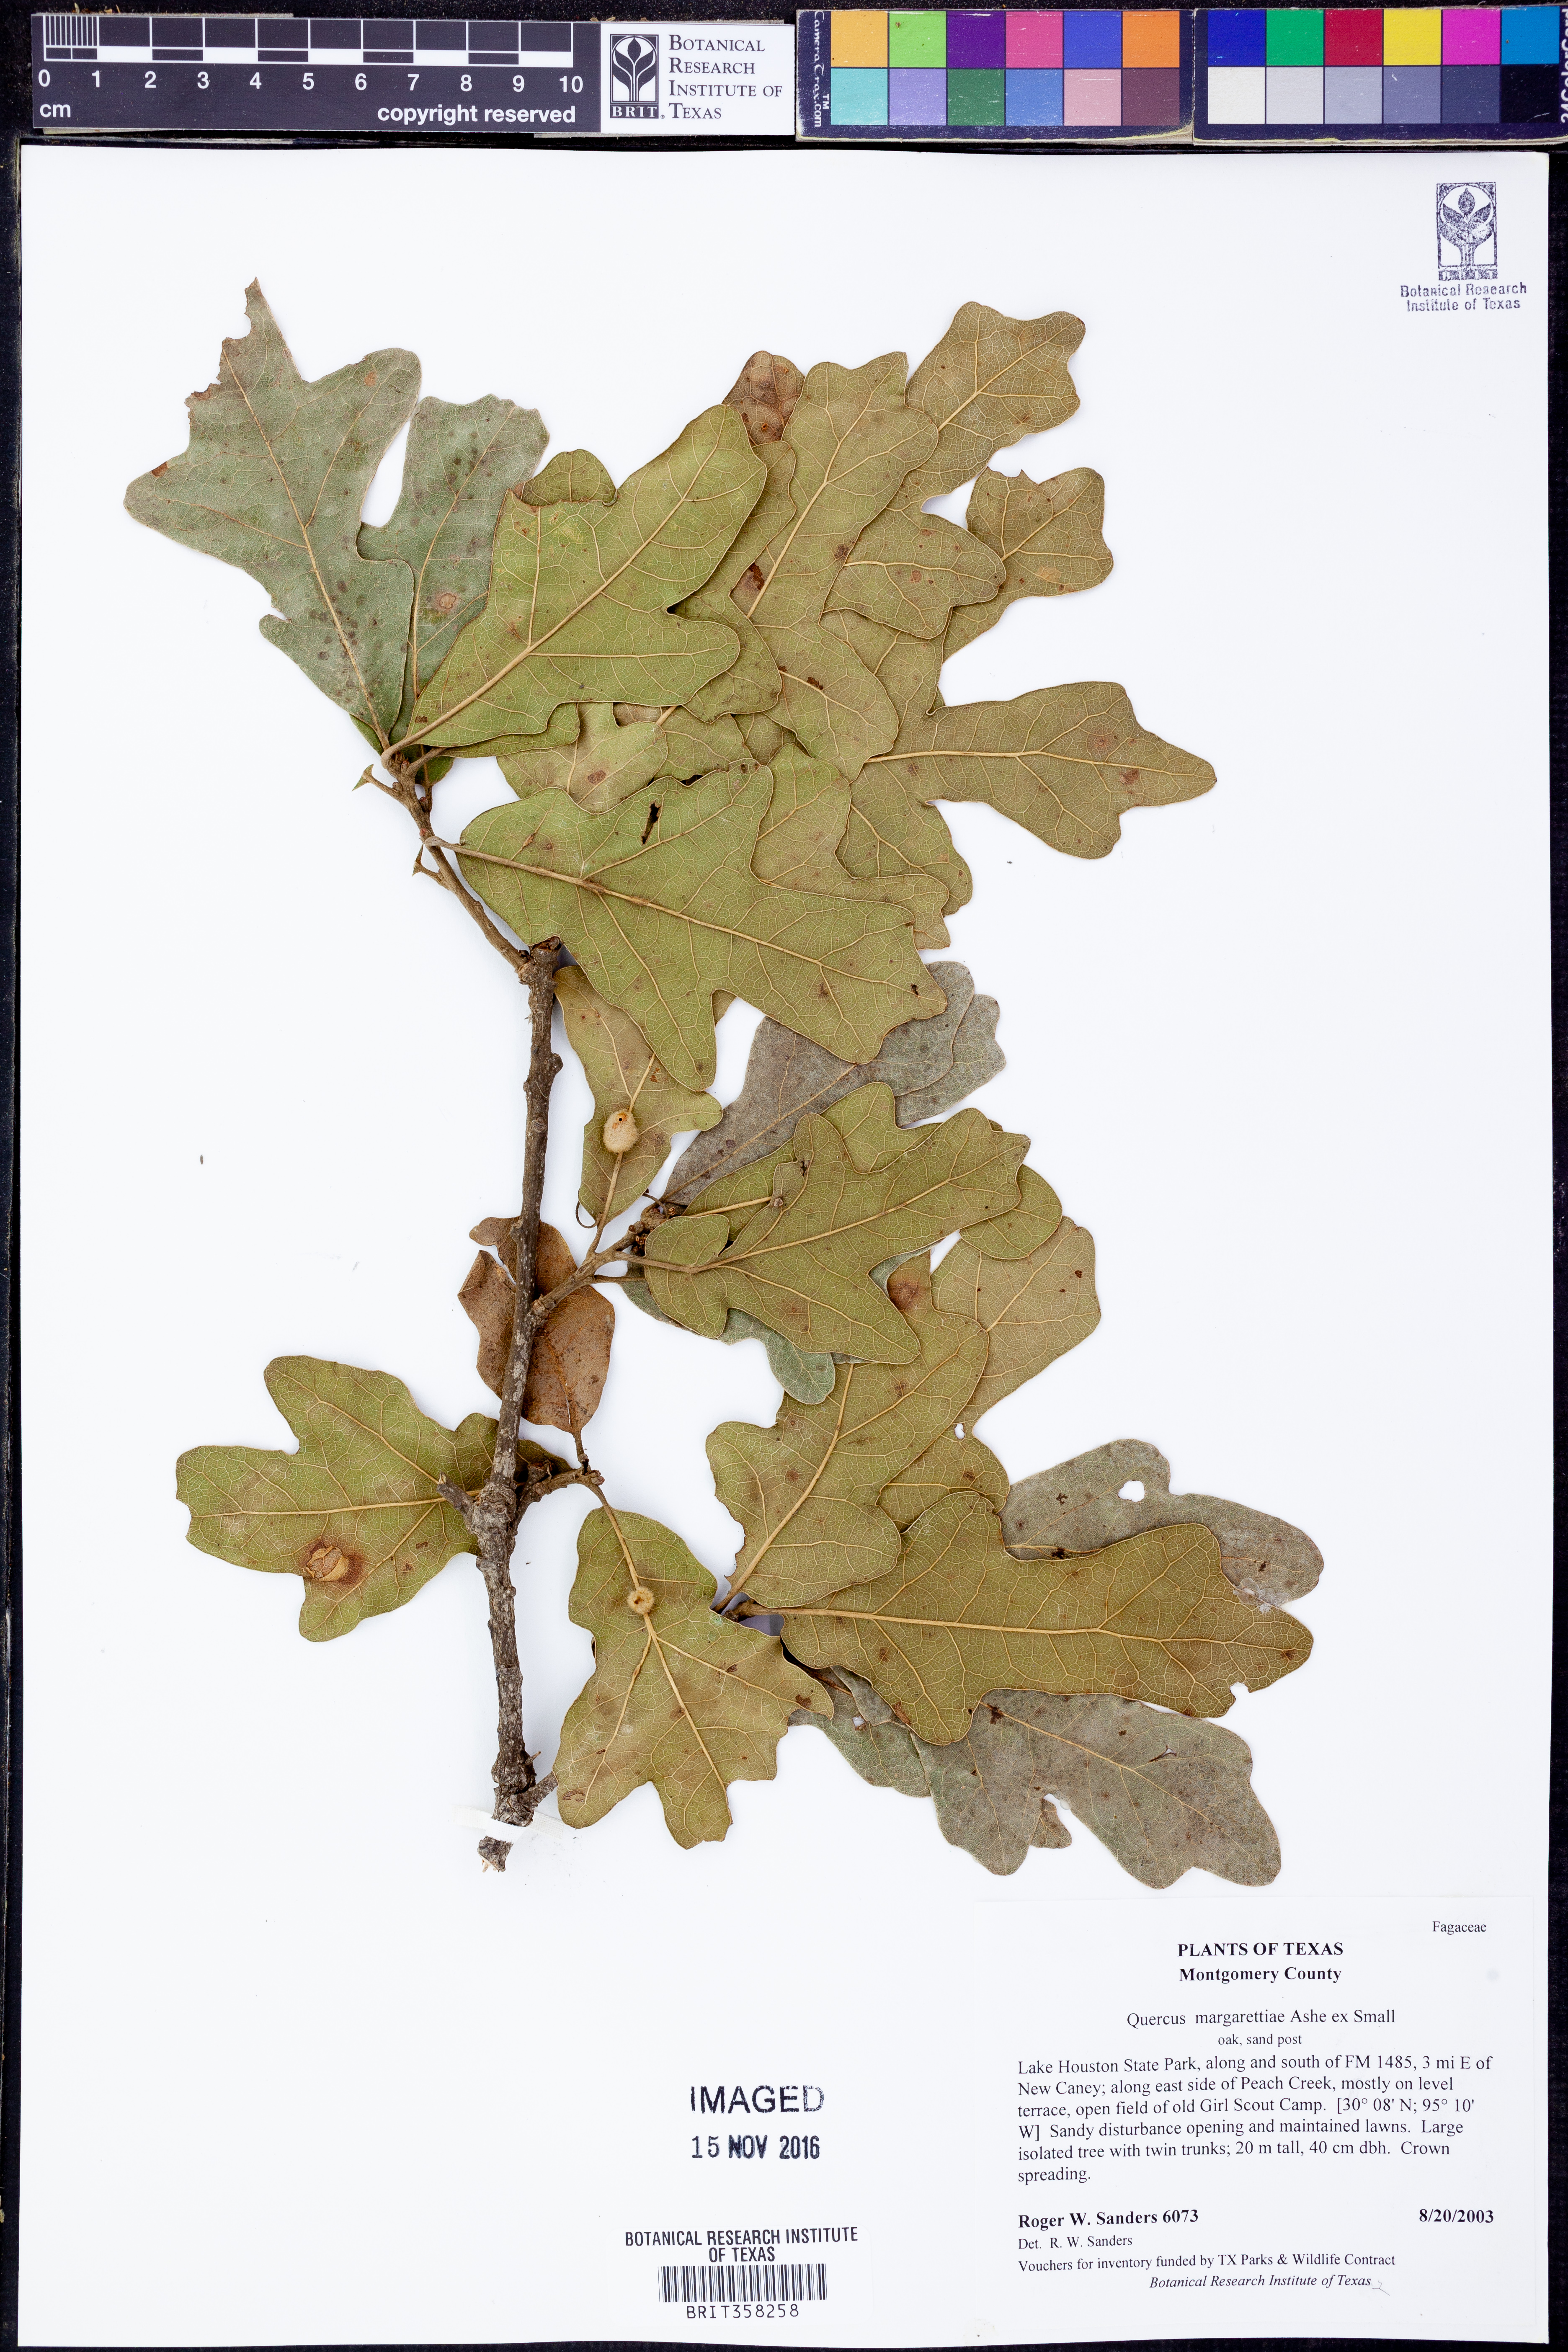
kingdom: Plantae
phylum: Tracheophyta
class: Magnoliopsida
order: Fagales
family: Fagaceae
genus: Quercus
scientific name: Quercus margaretiae
